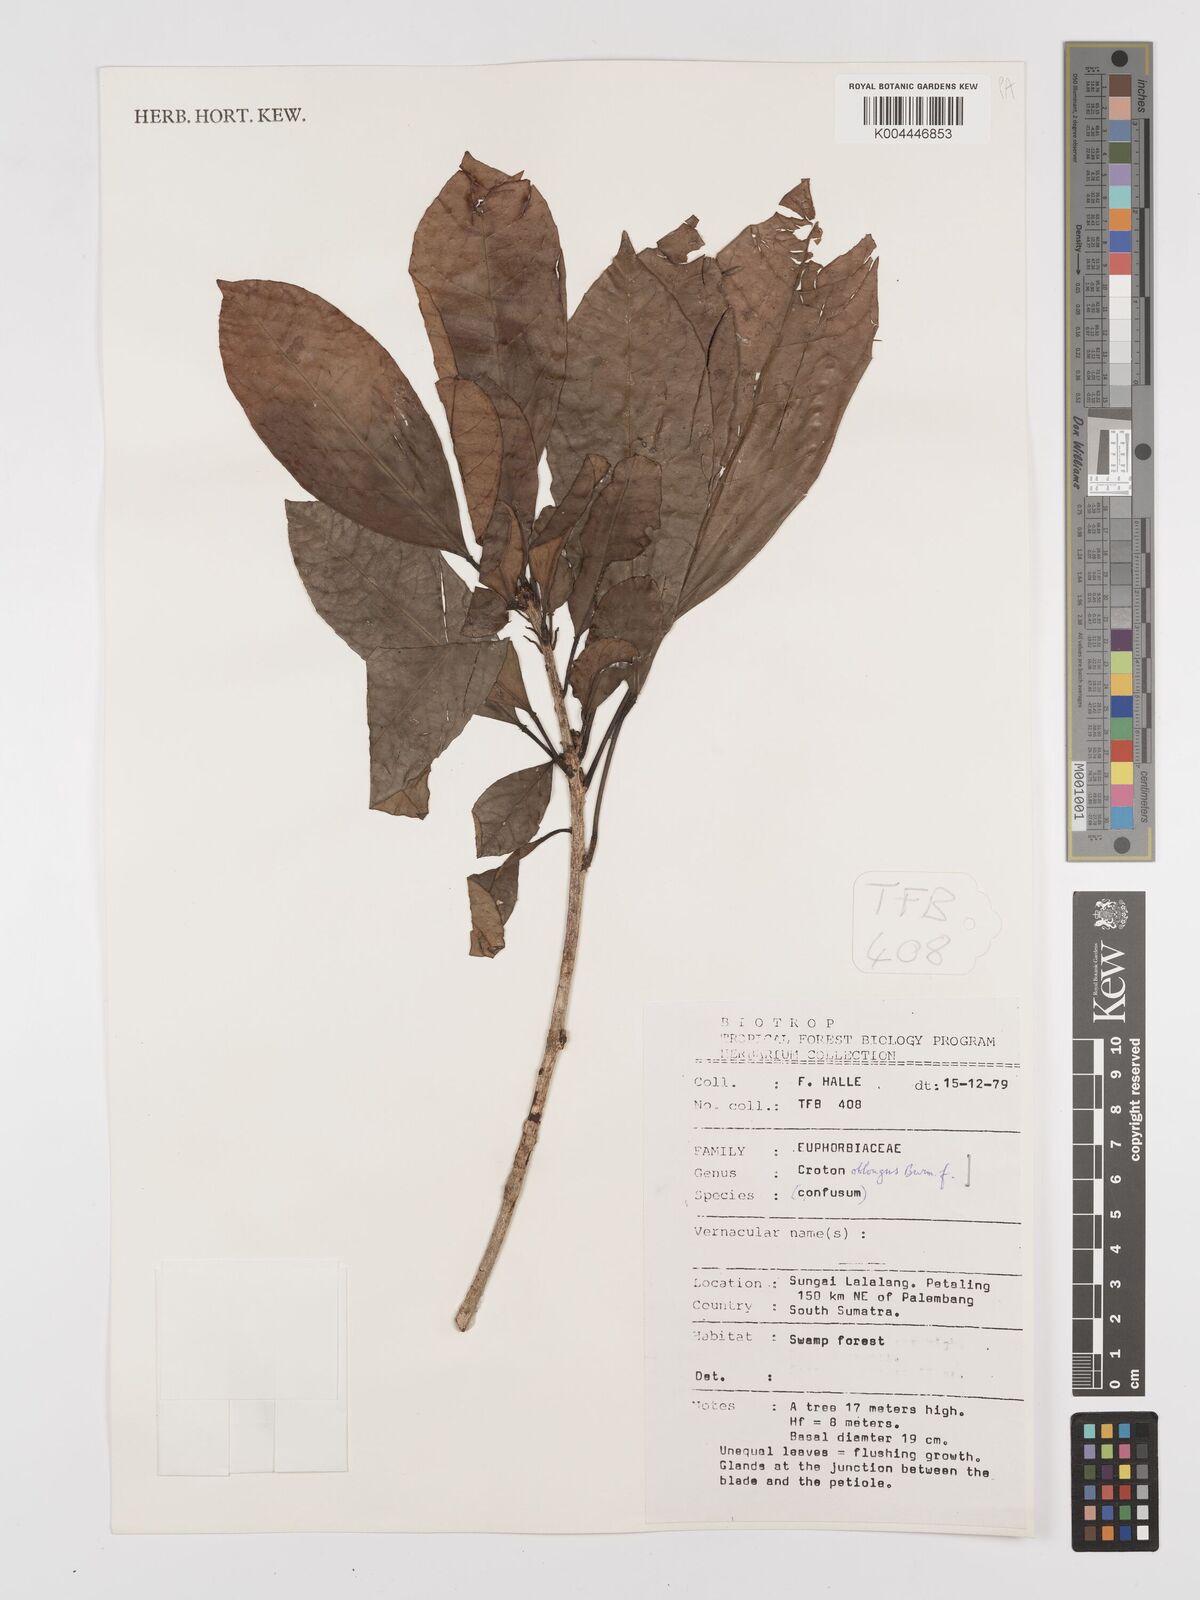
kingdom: Plantae
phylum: Tracheophyta
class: Magnoliopsida
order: Malpighiales
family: Euphorbiaceae
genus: Croton
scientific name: Croton oblongus
